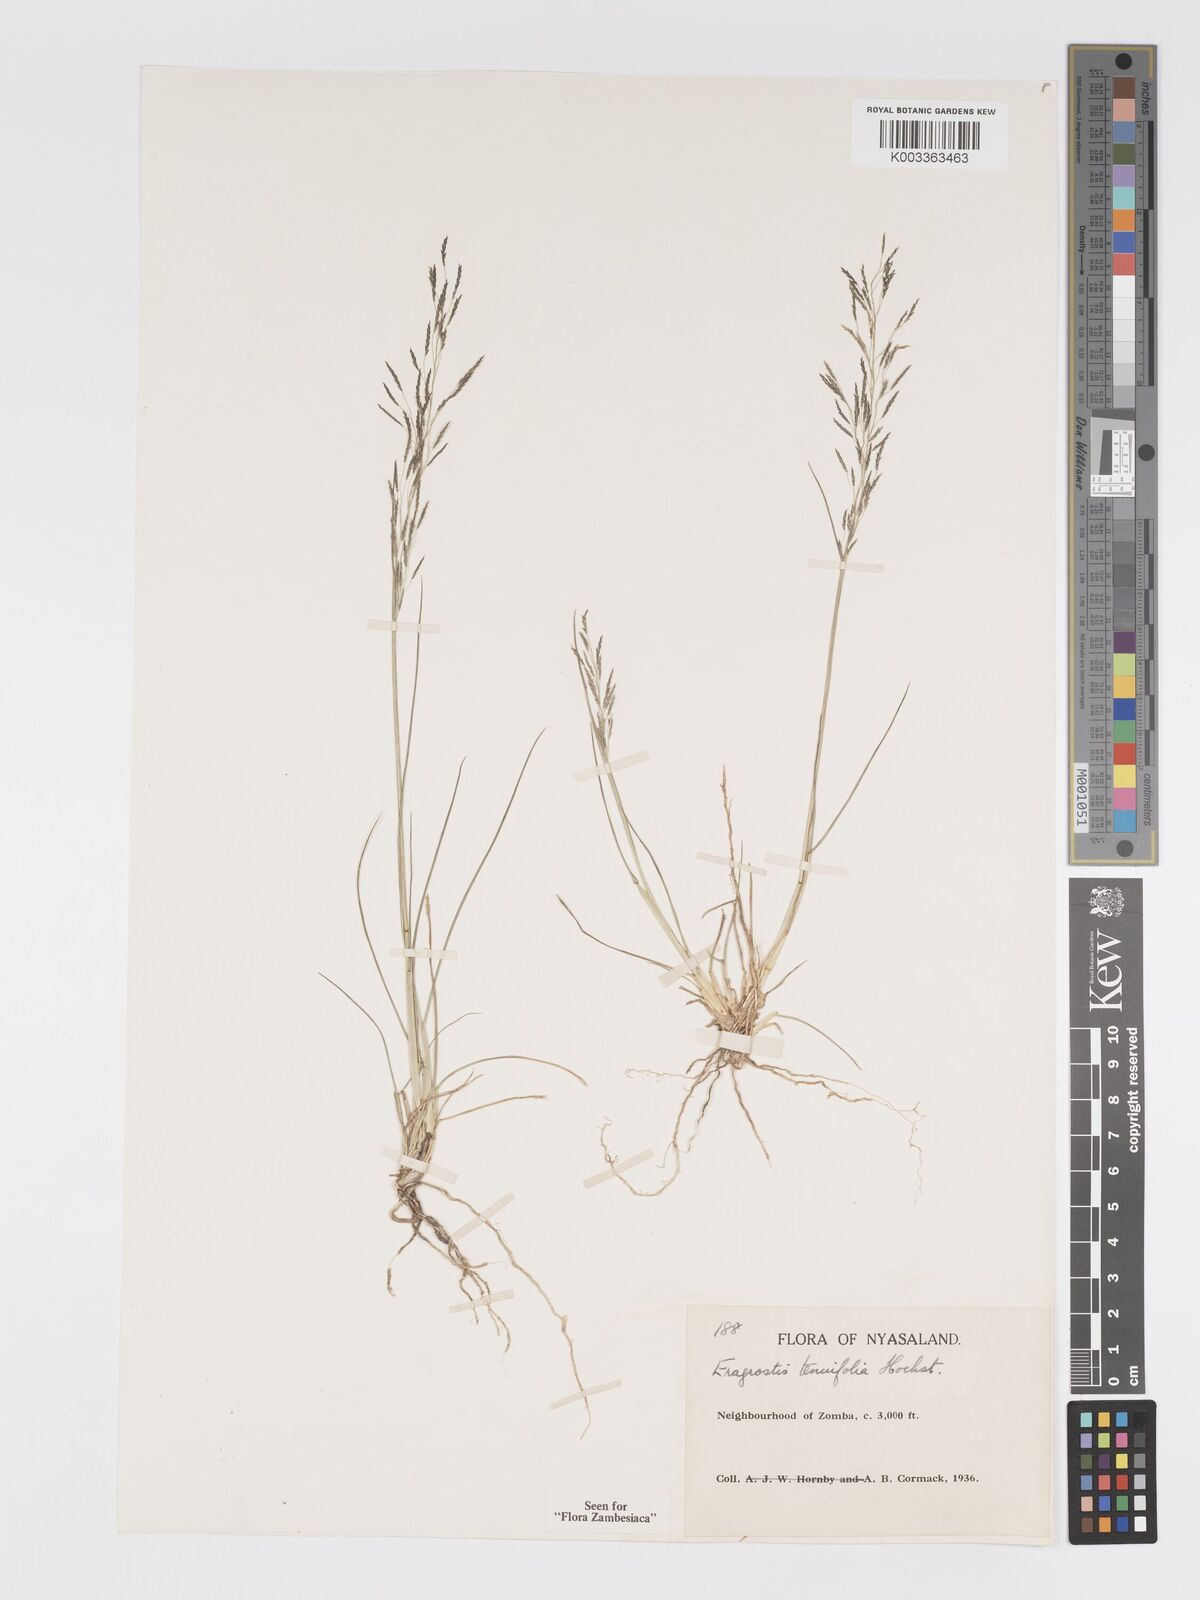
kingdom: Plantae
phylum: Tracheophyta
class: Liliopsida
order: Poales
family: Poaceae
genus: Eragrostis
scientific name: Eragrostis tenuifolia
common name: Elastic grass
